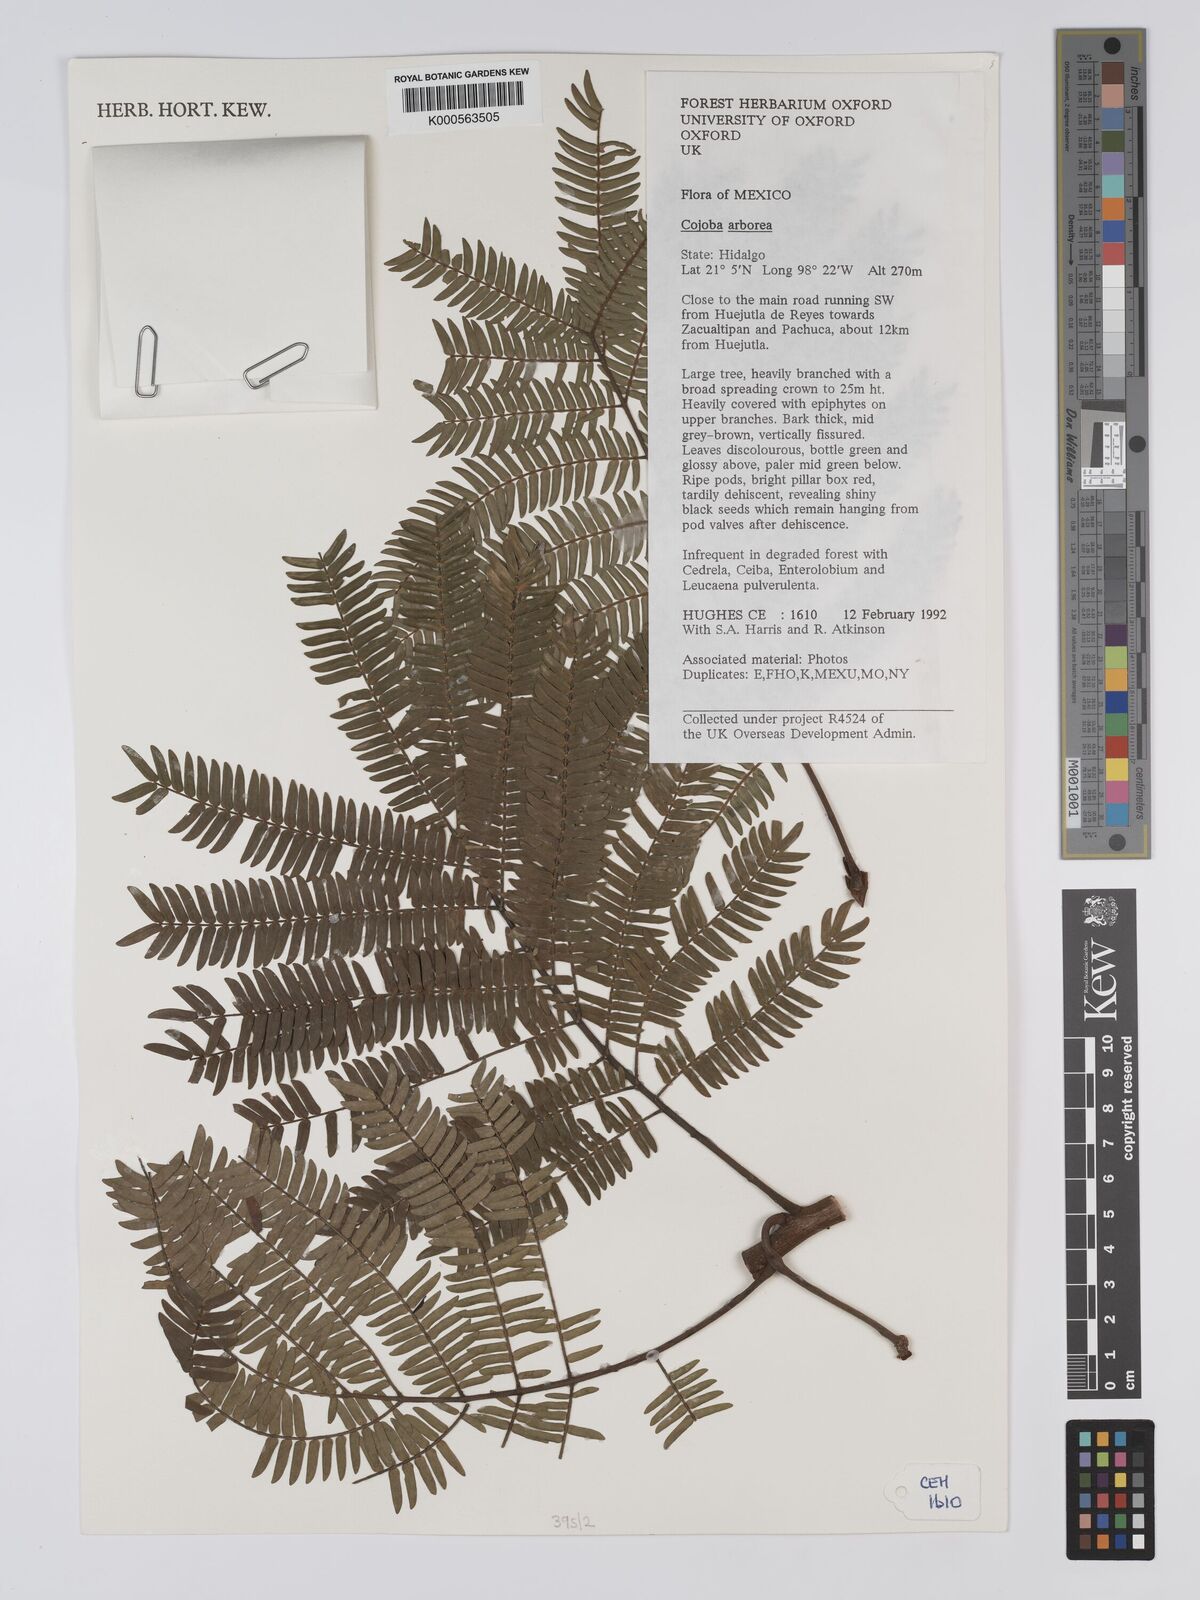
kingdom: Plantae
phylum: Tracheophyta
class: Magnoliopsida
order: Fabales
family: Fabaceae
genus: Cojoba
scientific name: Cojoba arborea
